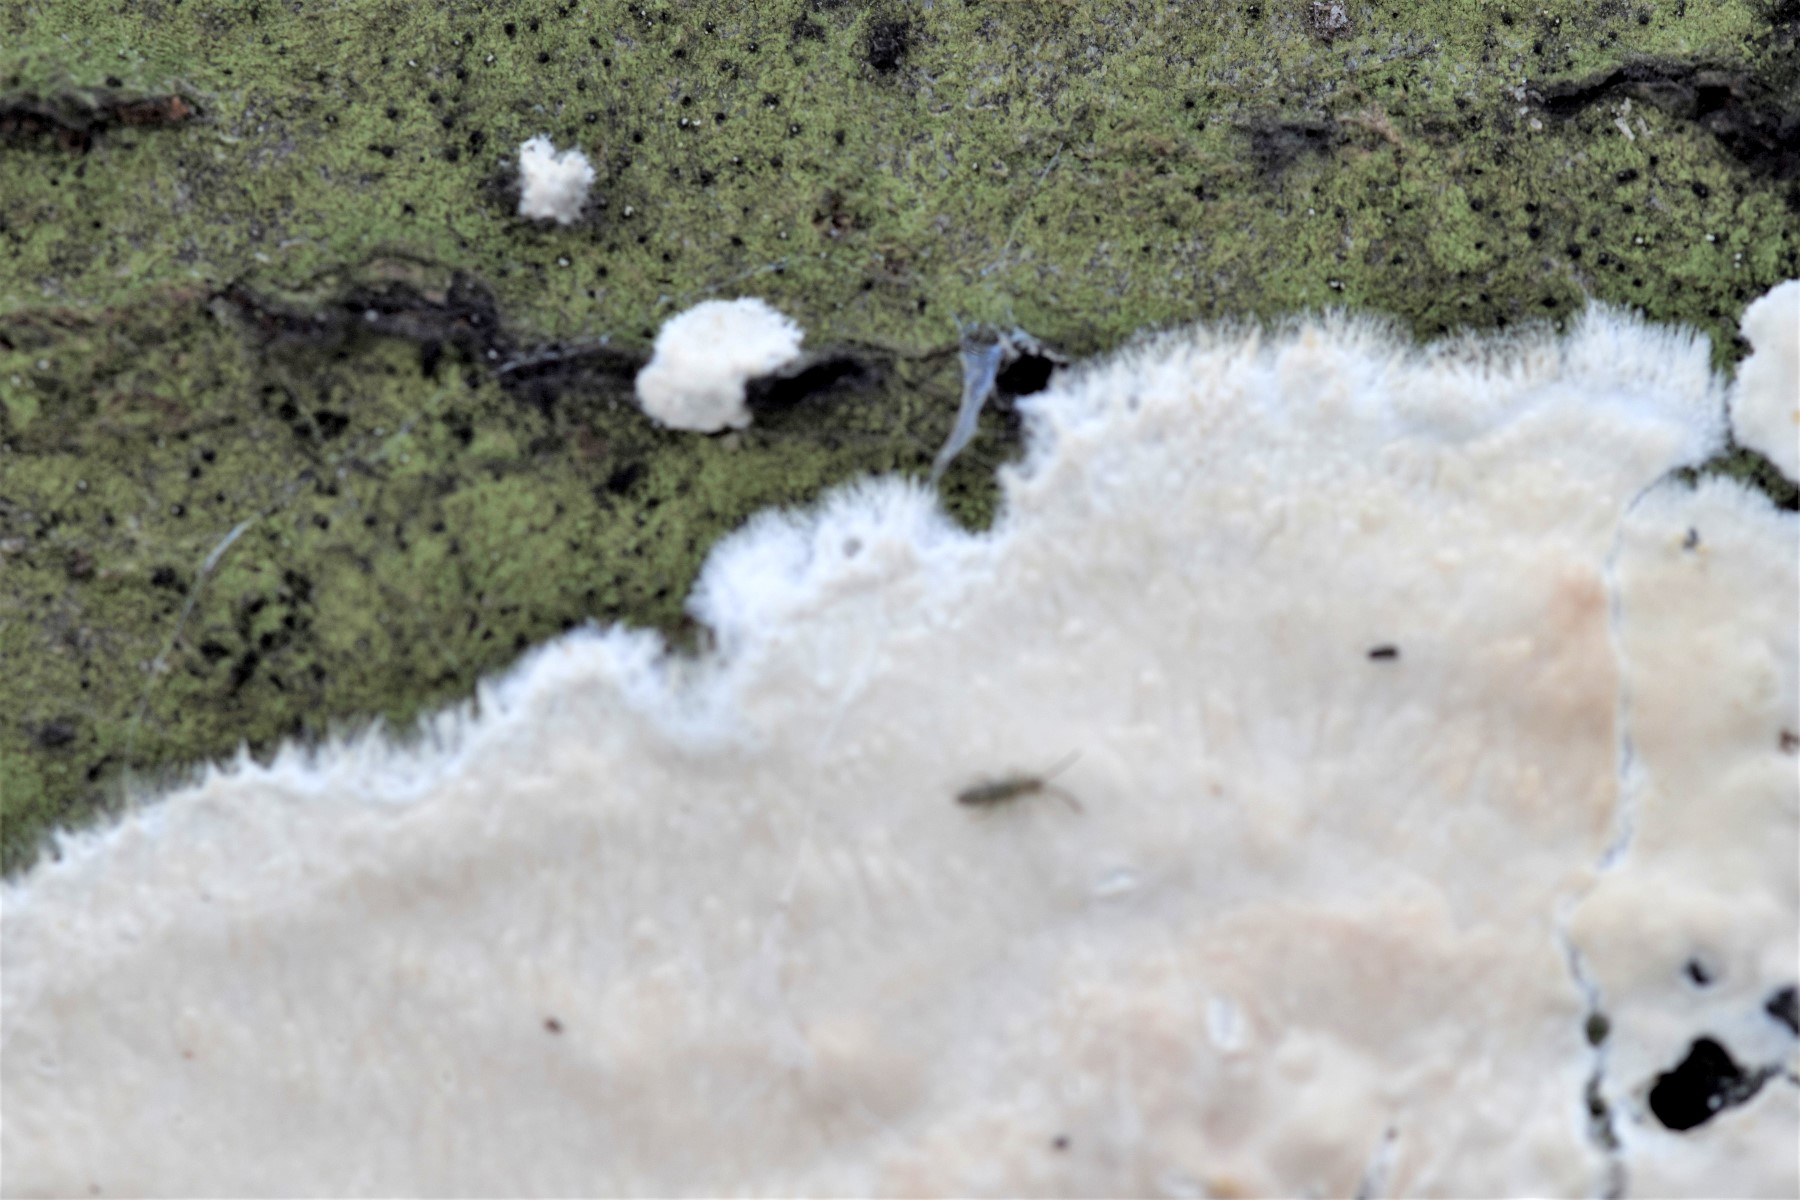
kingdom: Fungi
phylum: Basidiomycota
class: Agaricomycetes
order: Polyporales
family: Hyphodermataceae
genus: Mutatoderma
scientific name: Mutatoderma mutatum
